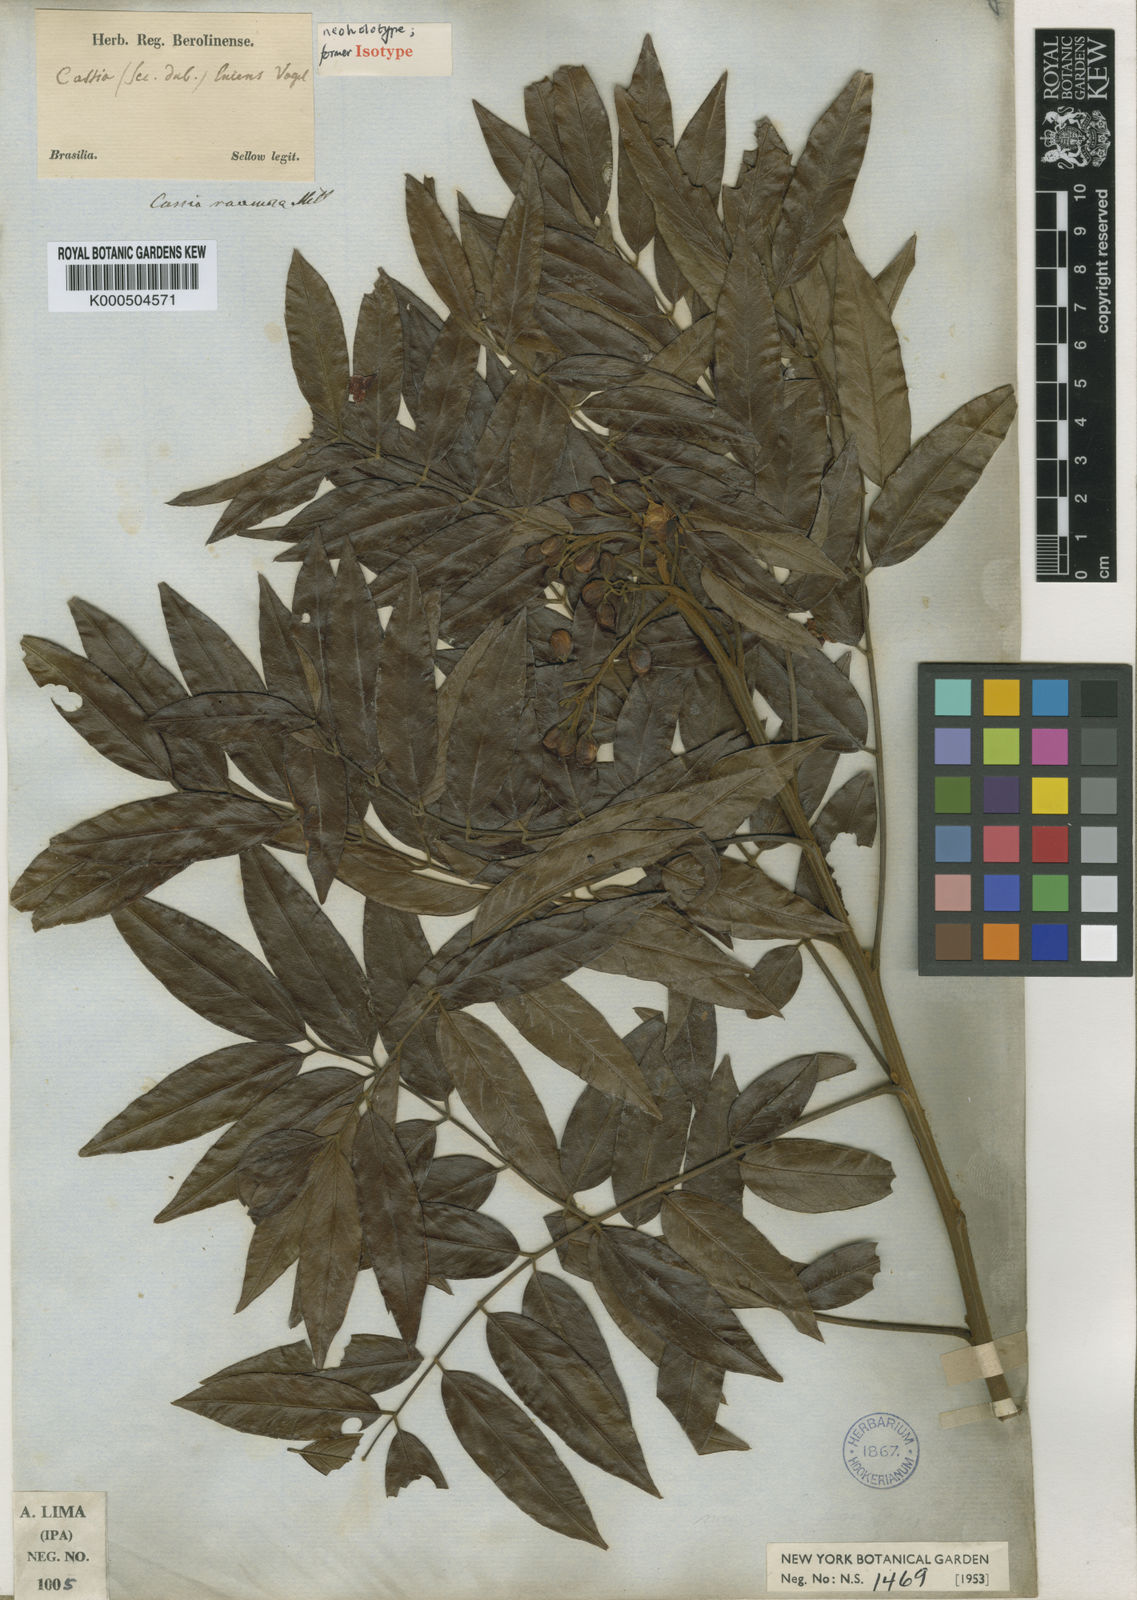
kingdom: Plantae
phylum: Tracheophyta
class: Magnoliopsida
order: Fabales
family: Fabaceae
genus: Senna
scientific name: Senna silvestris
